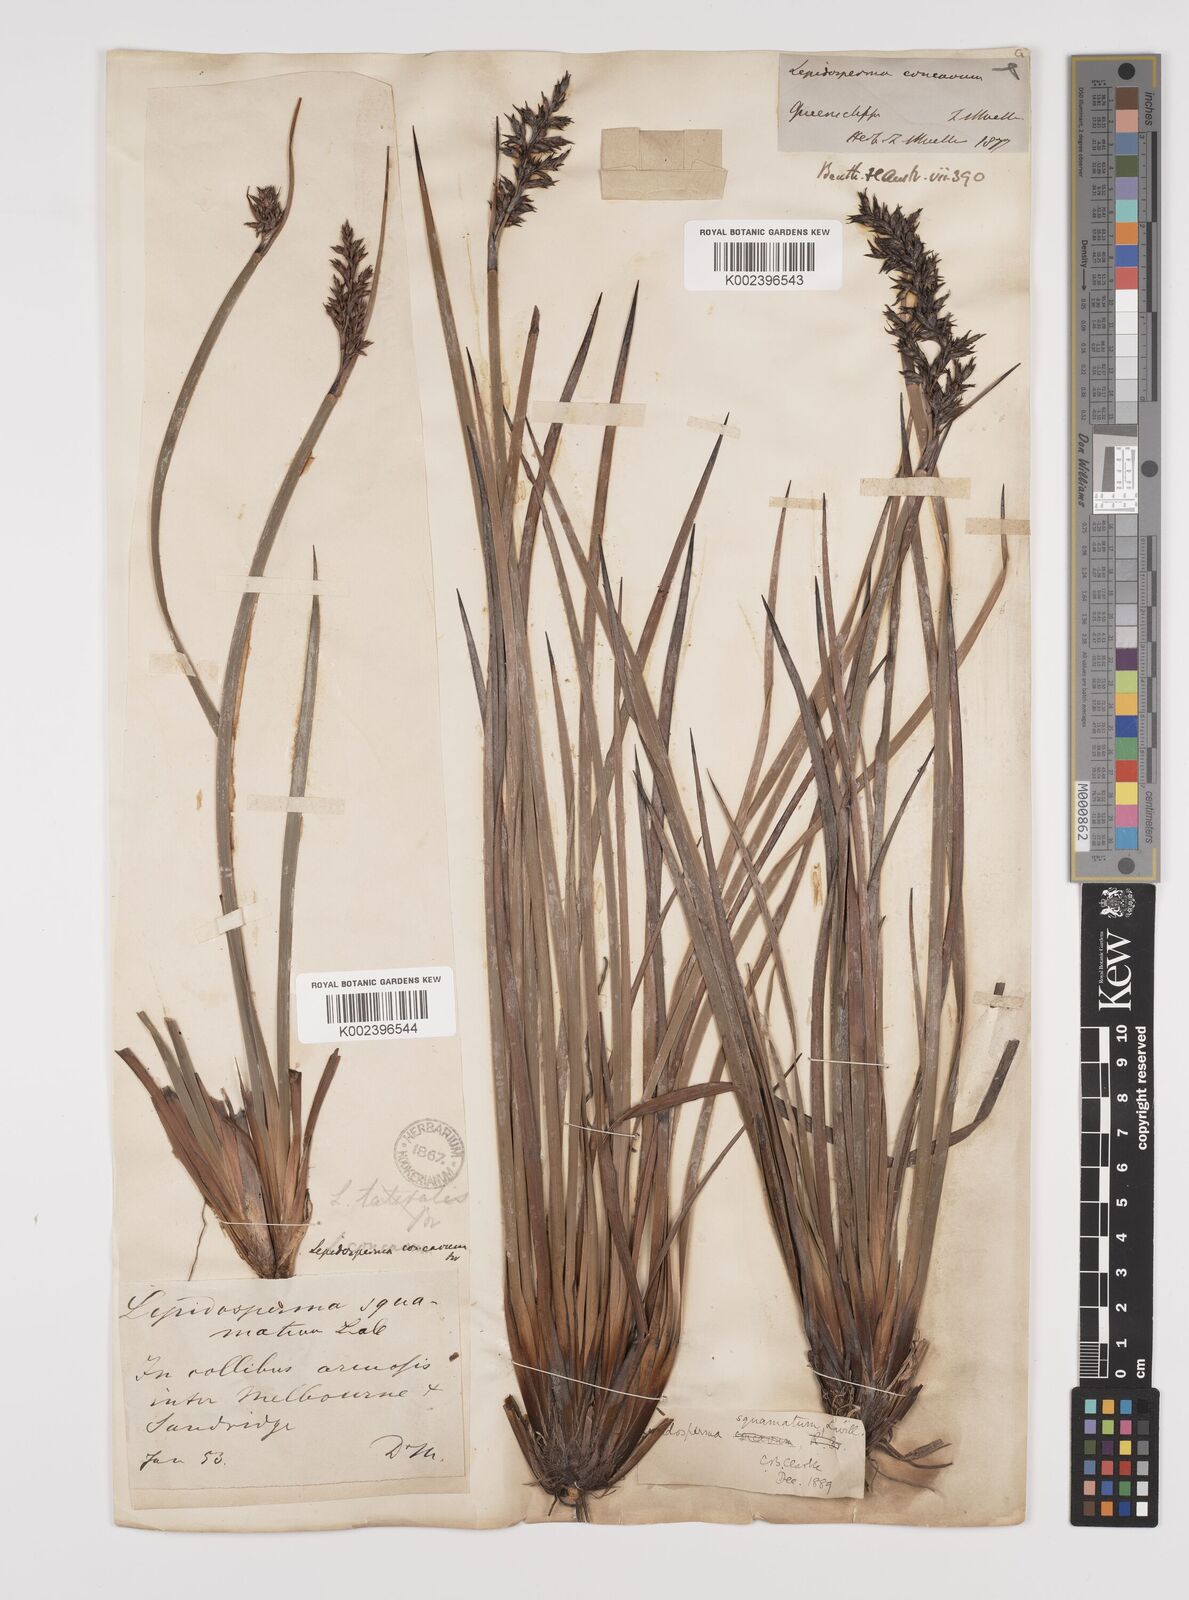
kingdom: Plantae
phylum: Tracheophyta
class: Liliopsida
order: Poales
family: Cyperaceae
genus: Lepidosperma
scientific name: Lepidosperma concavum
